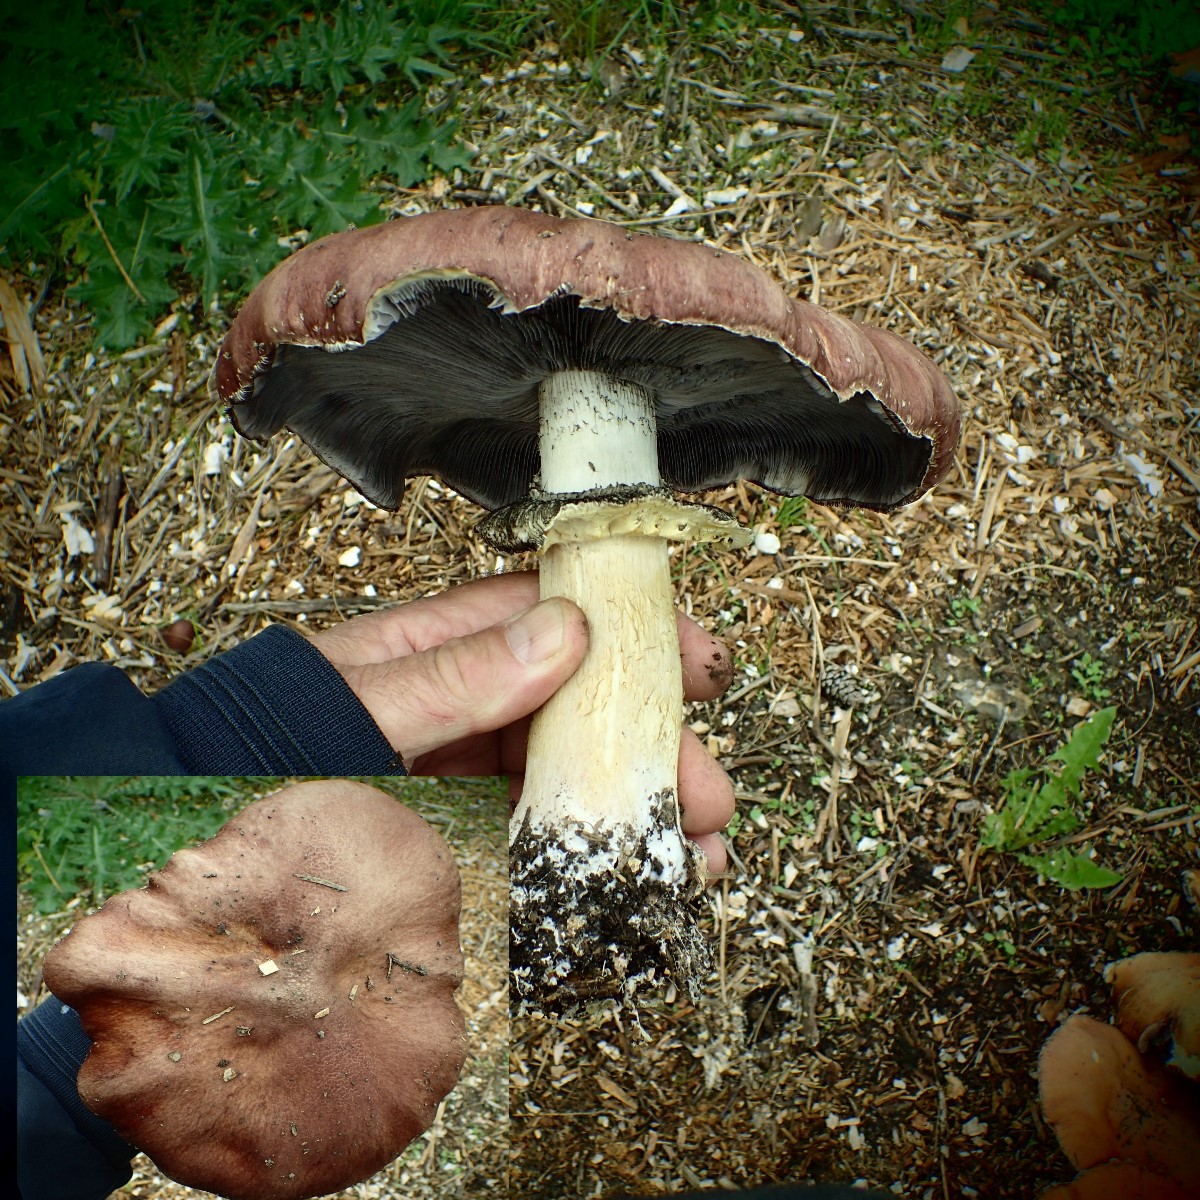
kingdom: Fungi
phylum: Basidiomycota
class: Agaricomycetes
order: Agaricales
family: Strophariaceae
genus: Stropharia
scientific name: Stropharia rugosoannulata
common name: rødbrun bredblad
